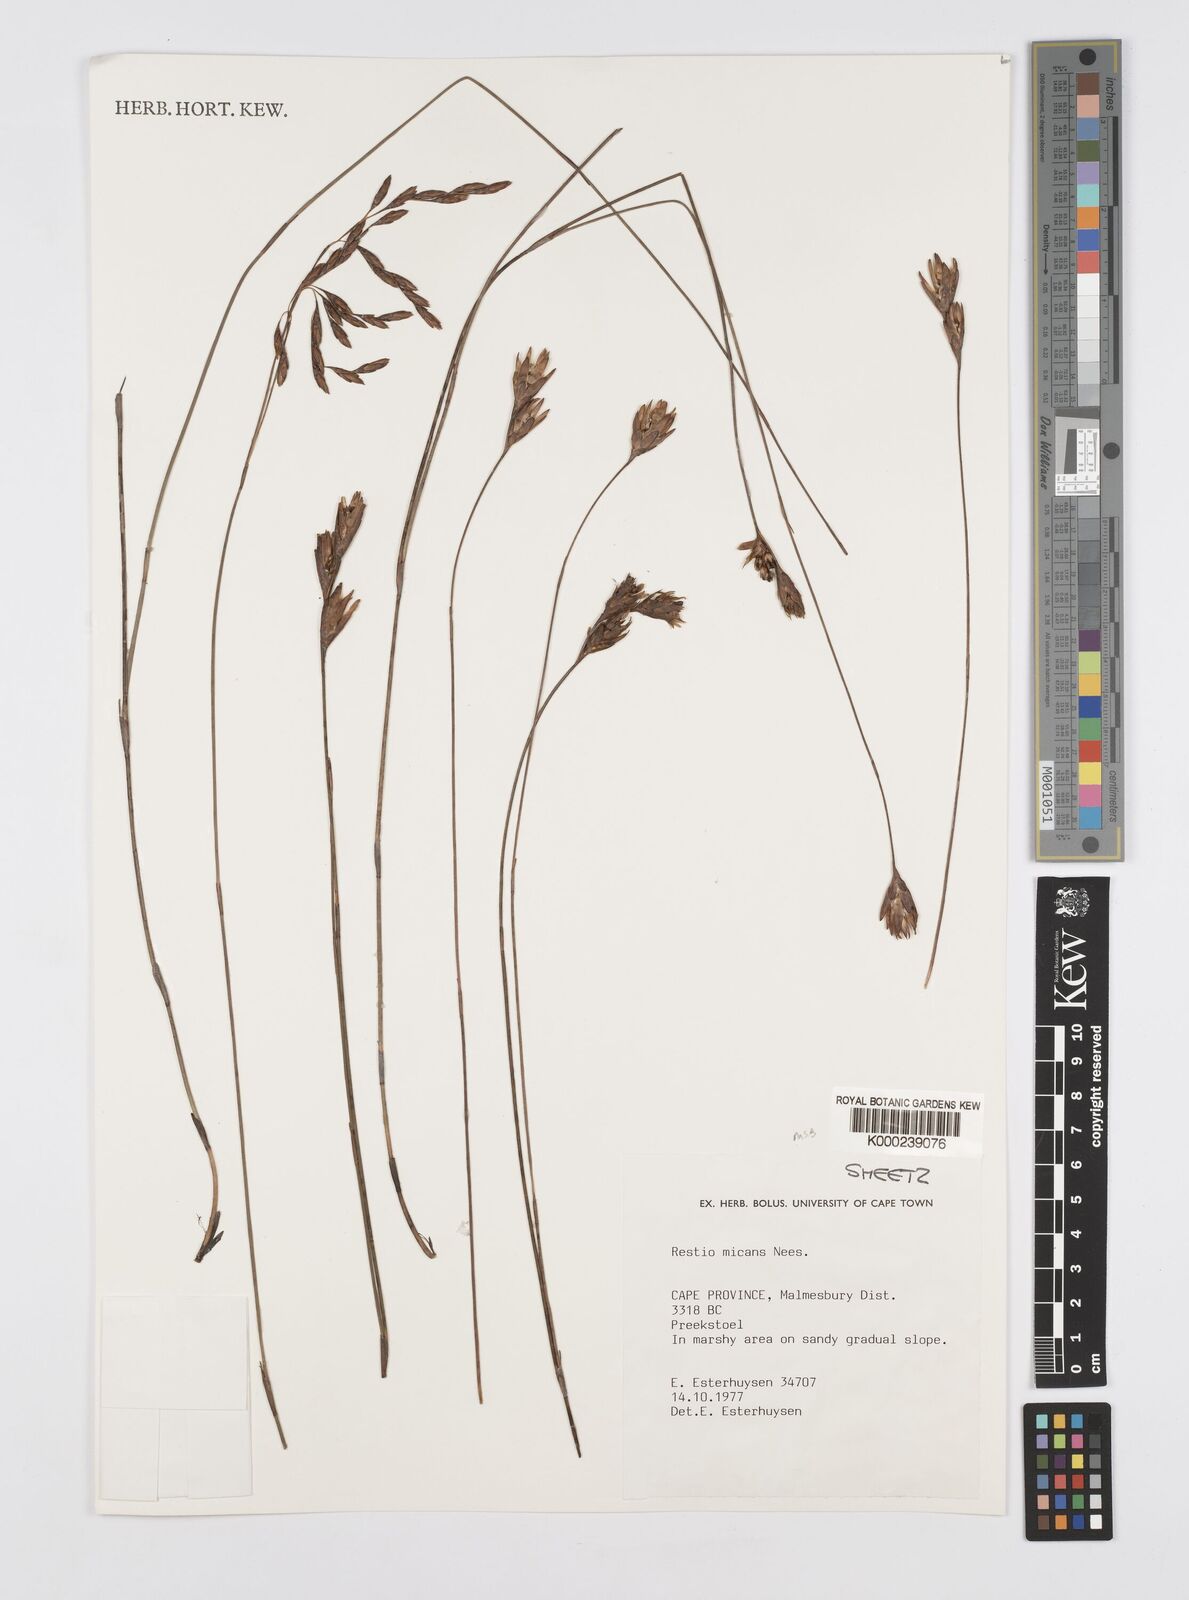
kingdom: Plantae
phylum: Tracheophyta
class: Liliopsida
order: Poales
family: Restionaceae
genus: Restio
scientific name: Restio micans
